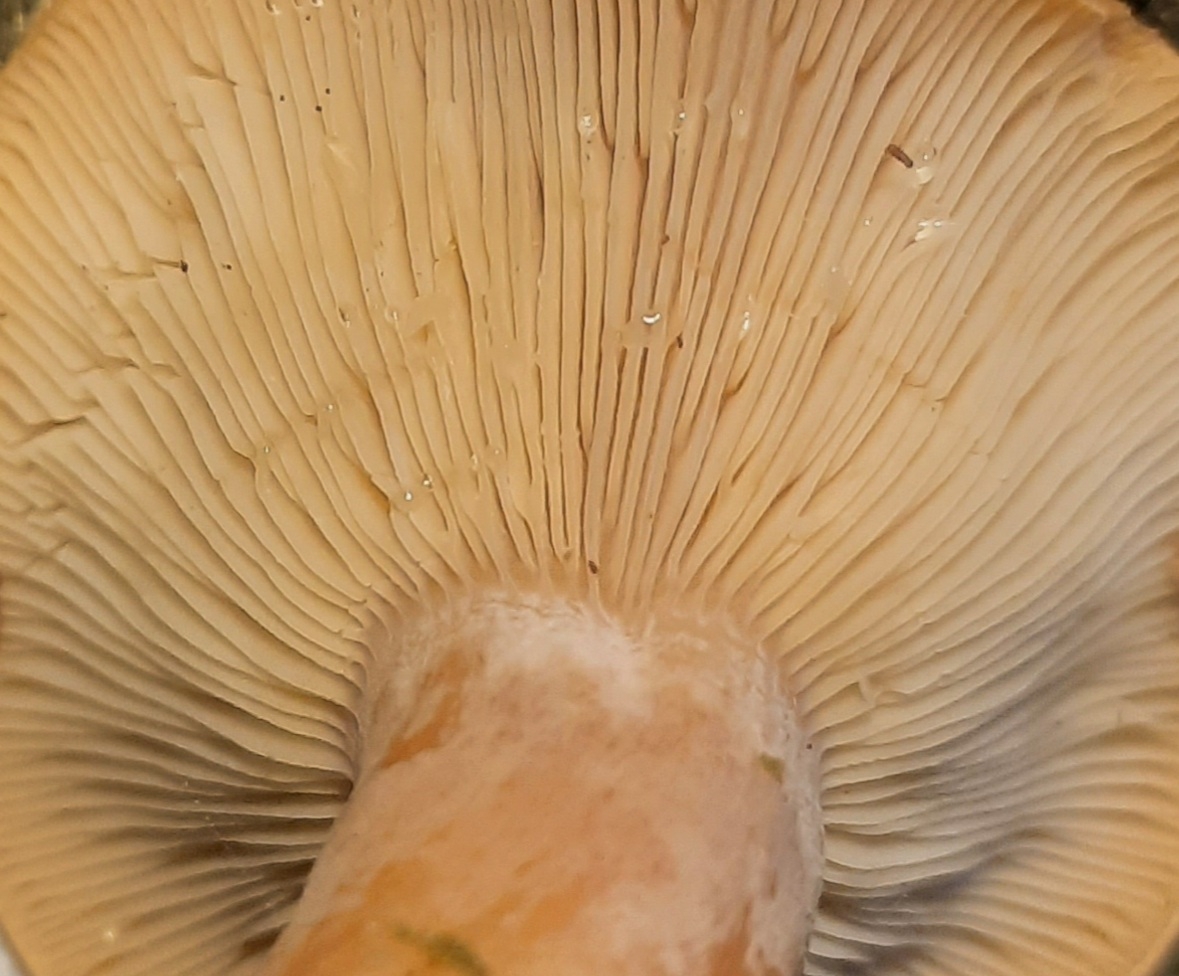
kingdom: Fungi
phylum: Basidiomycota
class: Agaricomycetes
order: Russulales
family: Russulaceae
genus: Lactarius
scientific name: Lactarius helvus
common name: mose-mælkehat
